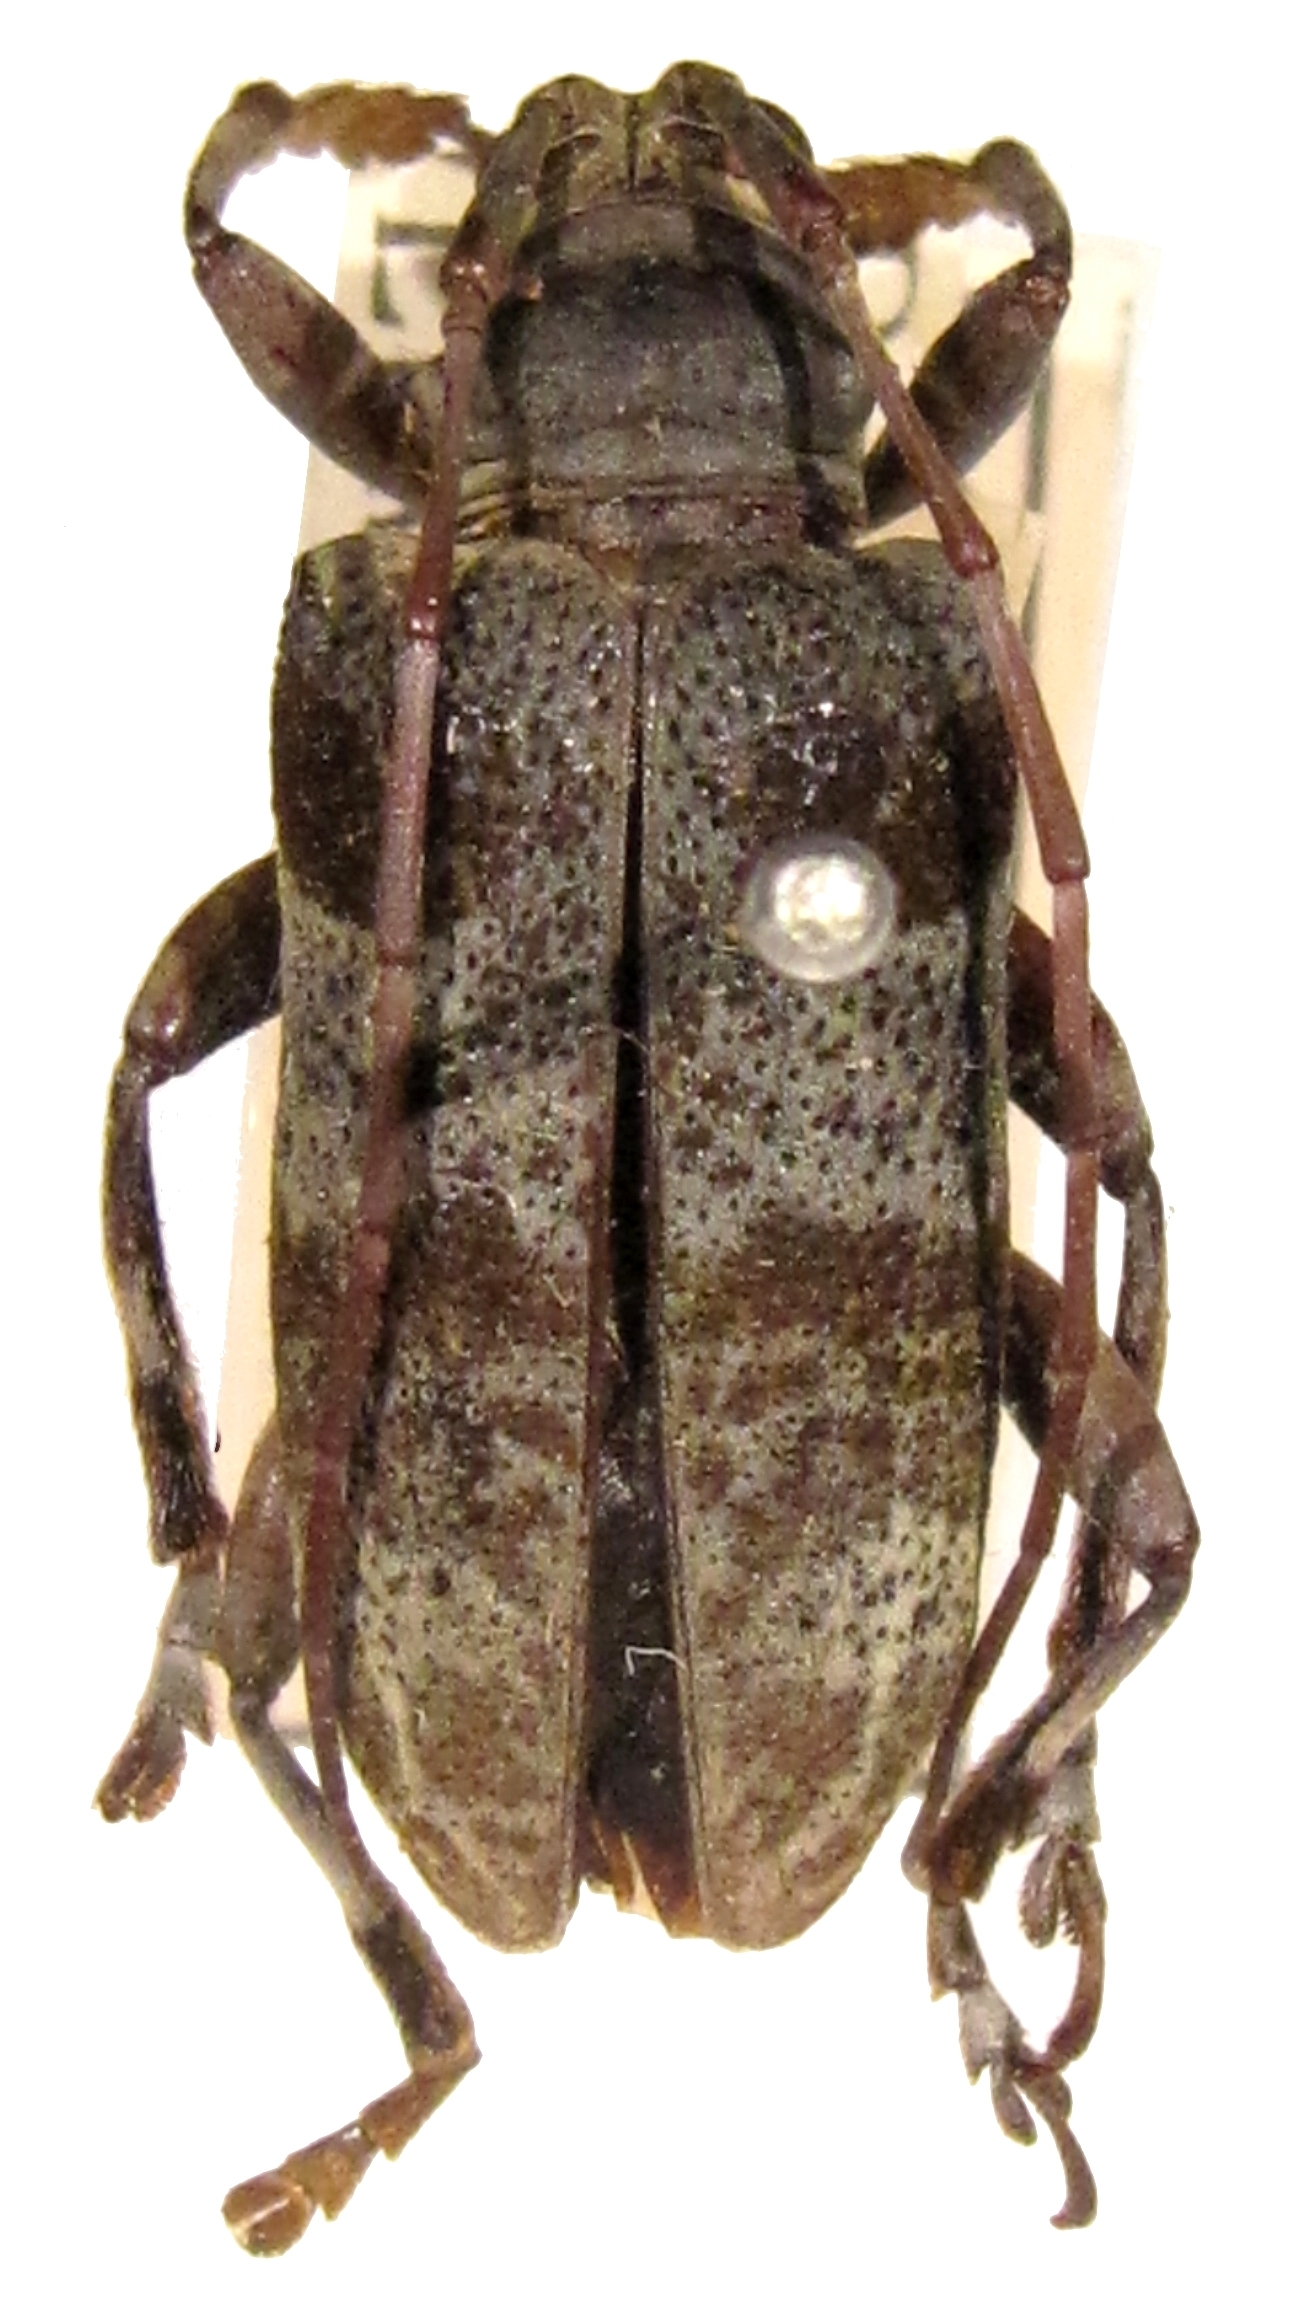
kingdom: Animalia
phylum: Arthropoda
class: Insecta
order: Coleoptera
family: Cerambycidae
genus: Paratheocris
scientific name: Paratheocris lunulata
